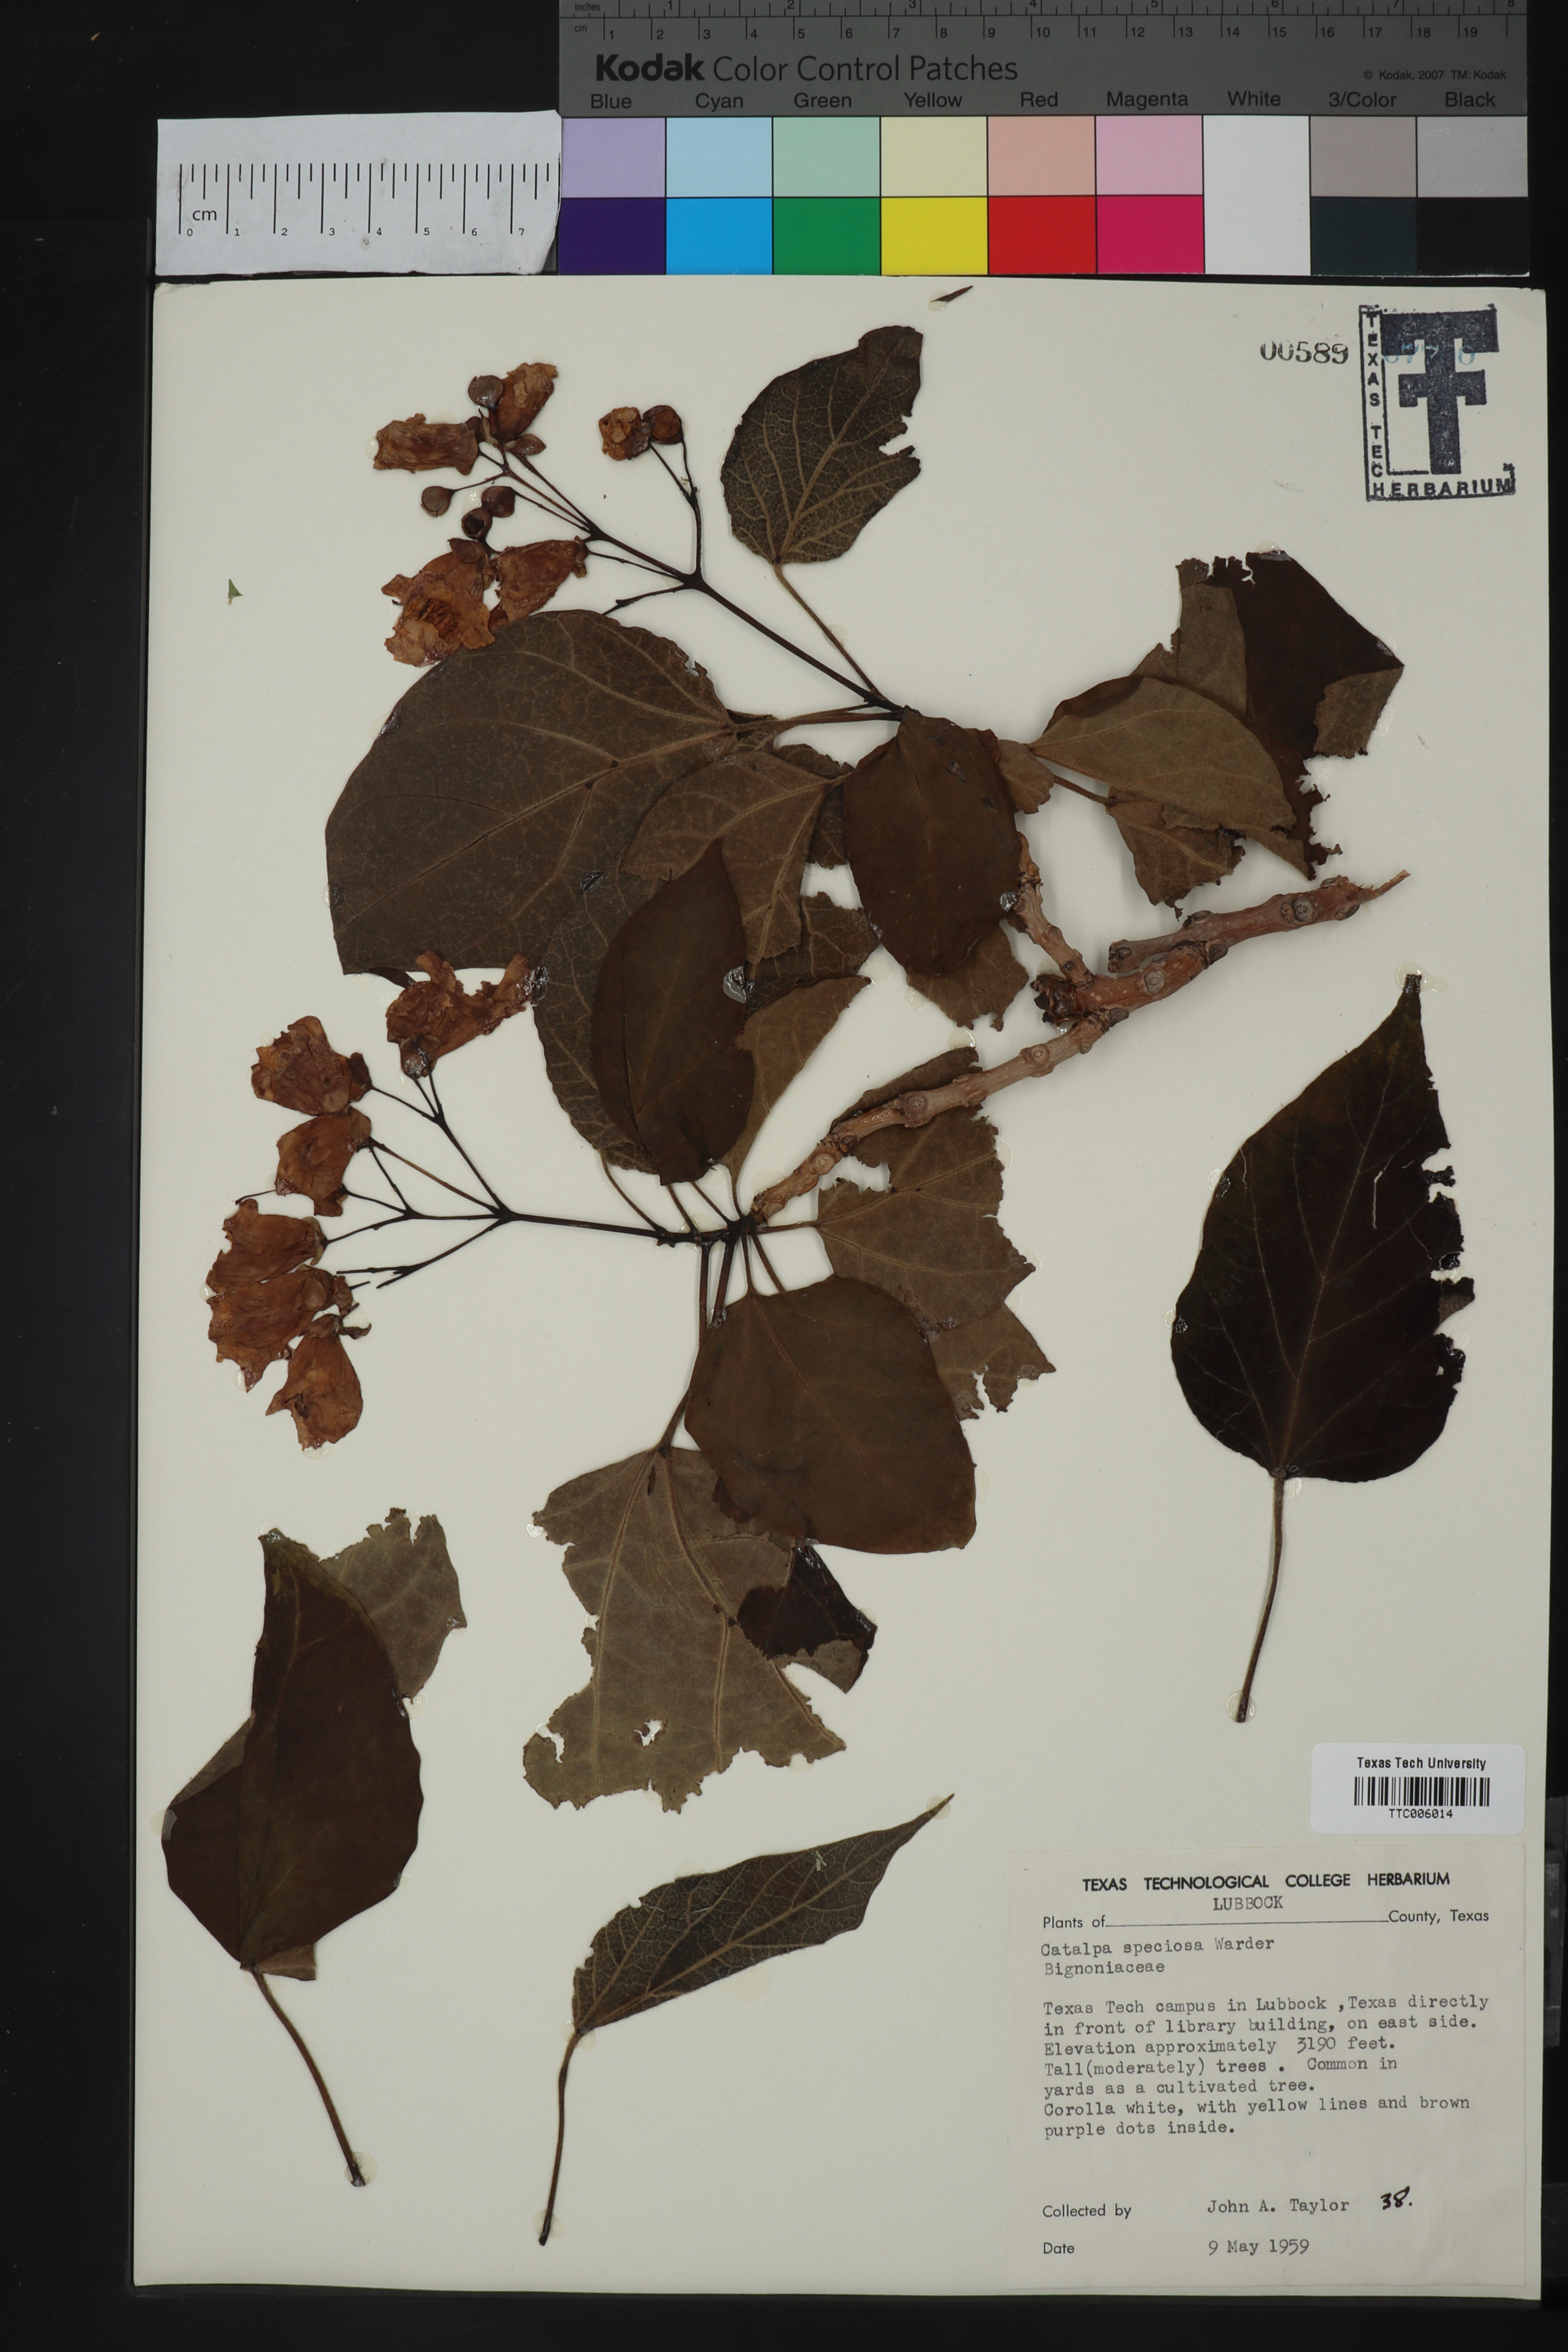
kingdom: Plantae
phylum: Tracheophyta
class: Magnoliopsida
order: Lamiales
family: Bignoniaceae
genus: Catalpa
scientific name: Catalpa speciosa
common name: Northern catalpa
